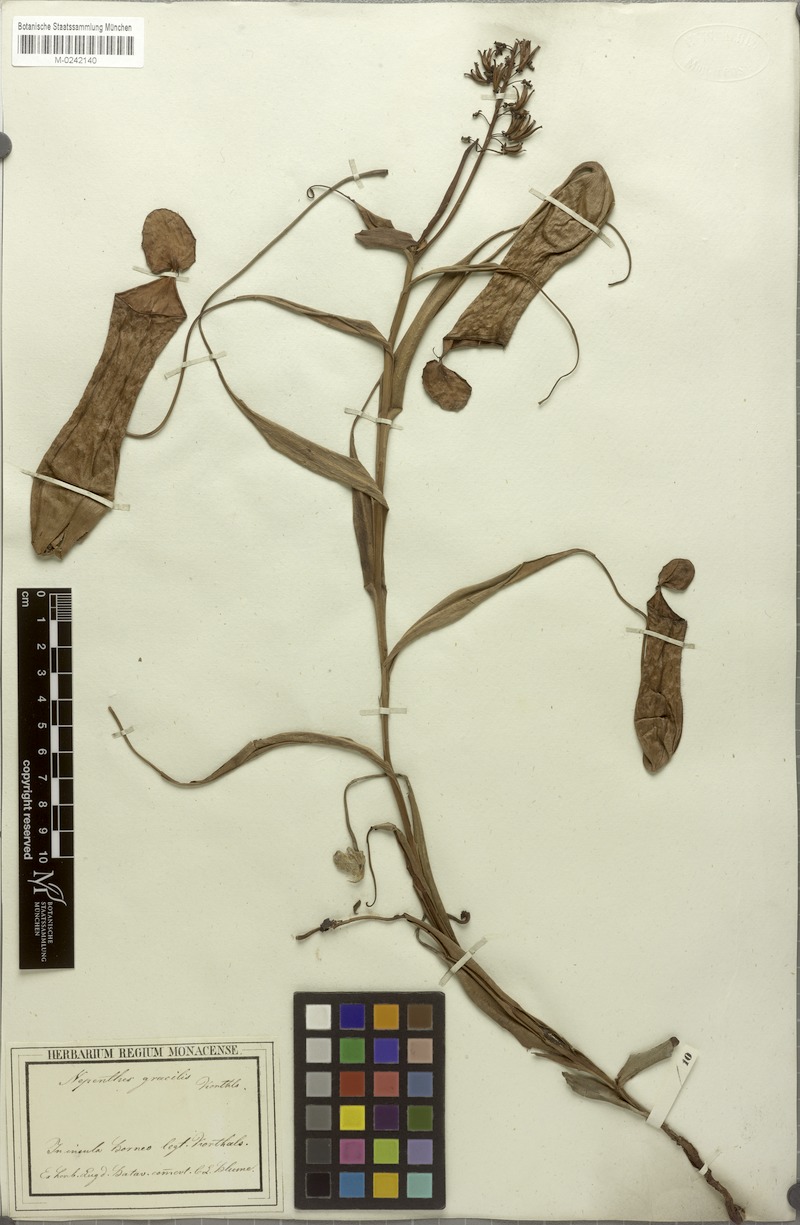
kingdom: Plantae
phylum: Tracheophyta
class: Magnoliopsida
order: Caryophyllales
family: Nepenthaceae
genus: Nepenthes
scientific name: Nepenthes gracilis
